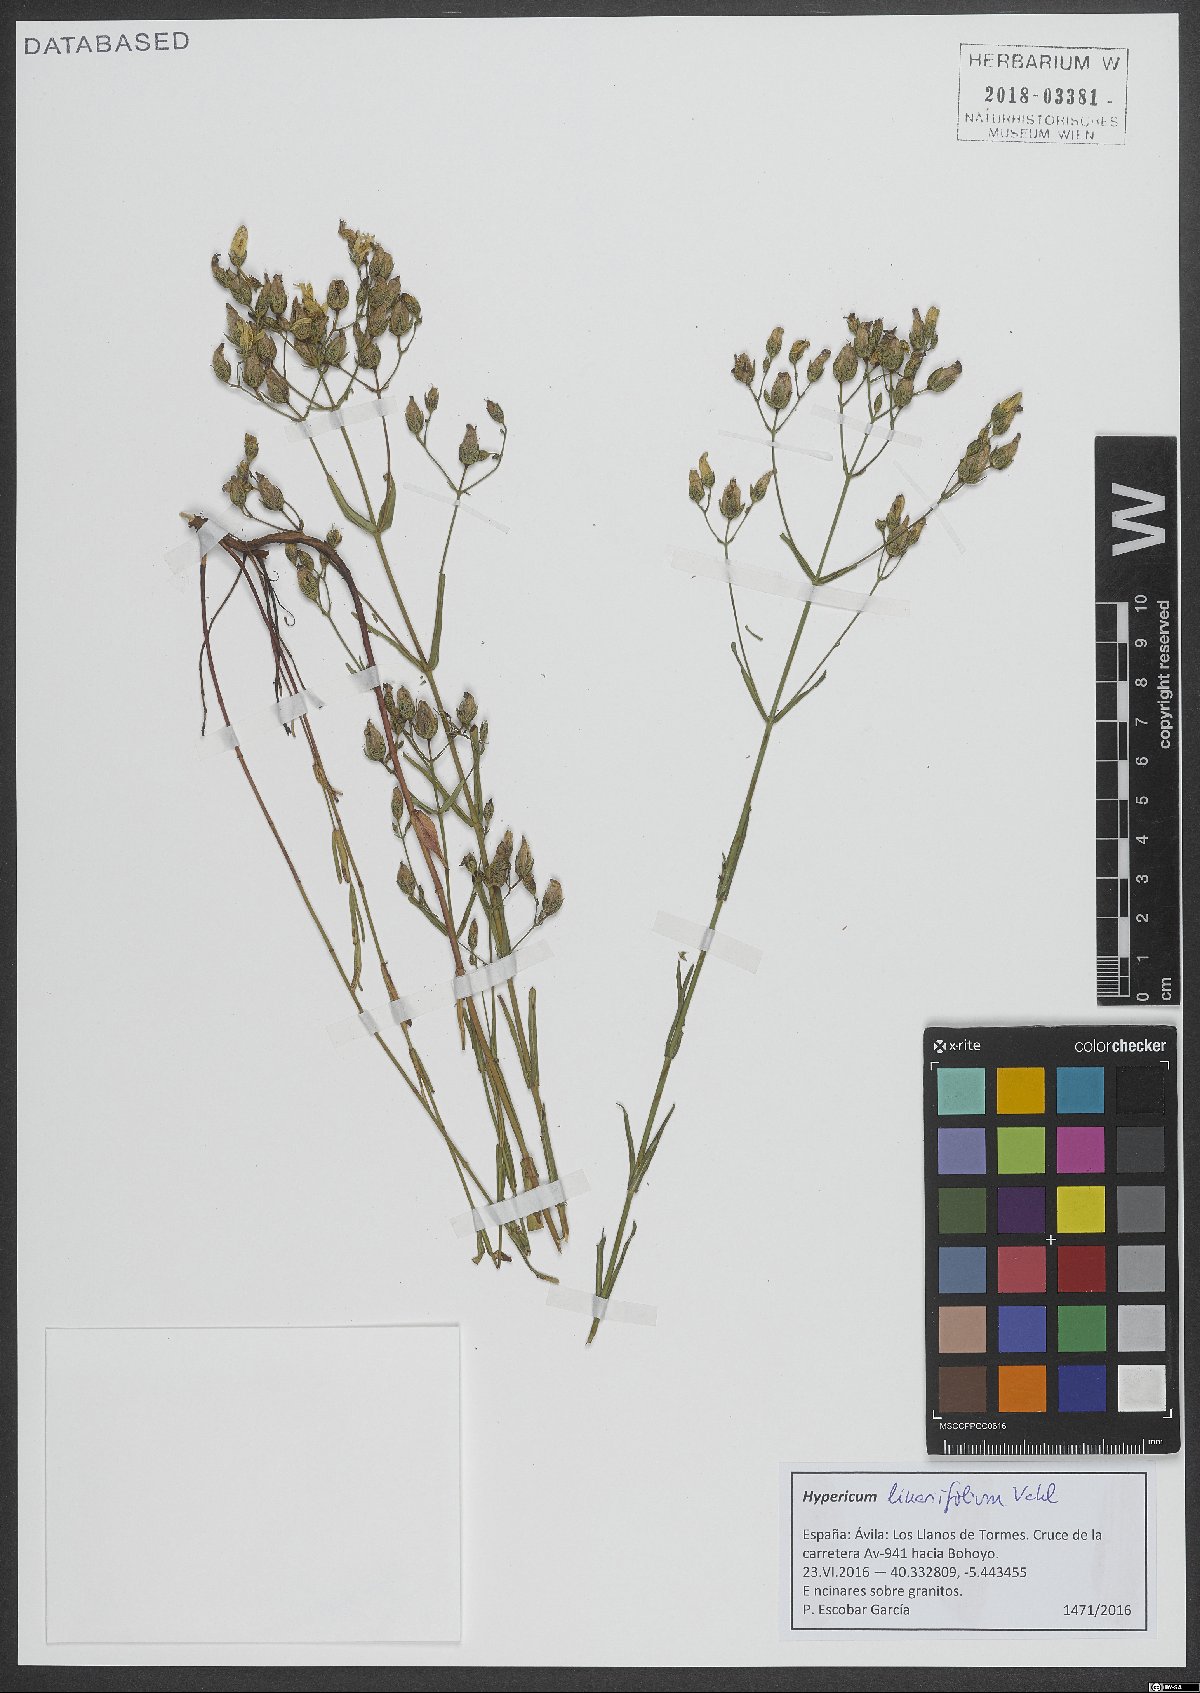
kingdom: Plantae
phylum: Tracheophyta
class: Magnoliopsida
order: Malpighiales
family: Hypericaceae
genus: Hypericum
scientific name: Hypericum linariifolium
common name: Toadflax-leaved st. john's-wort
